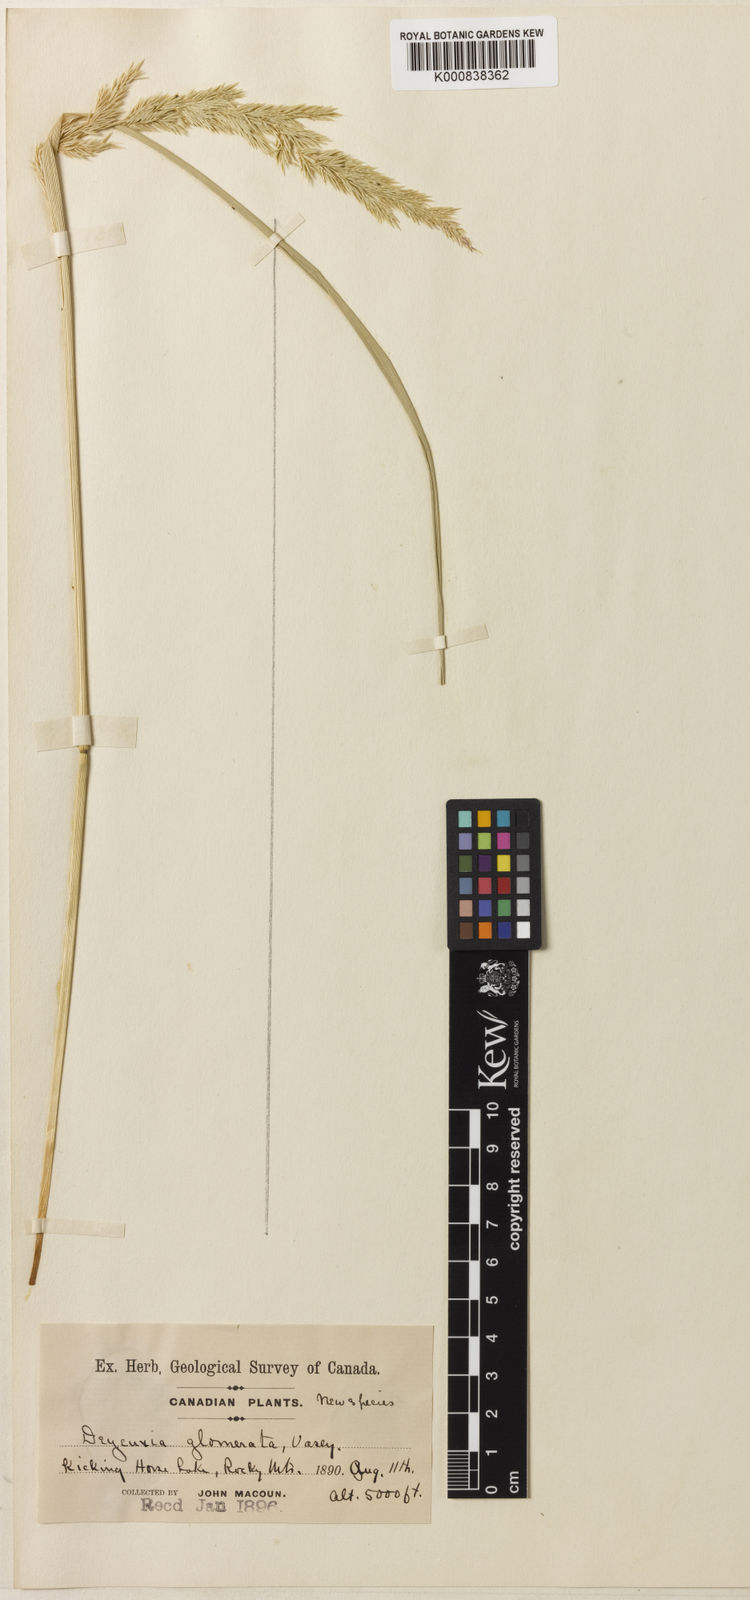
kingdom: Plantae
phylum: Tracheophyta
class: Liliopsida
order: Poales
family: Poaceae
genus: Calamagrostis
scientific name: Calamagrostis inexpansa
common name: Northern reedgrass
